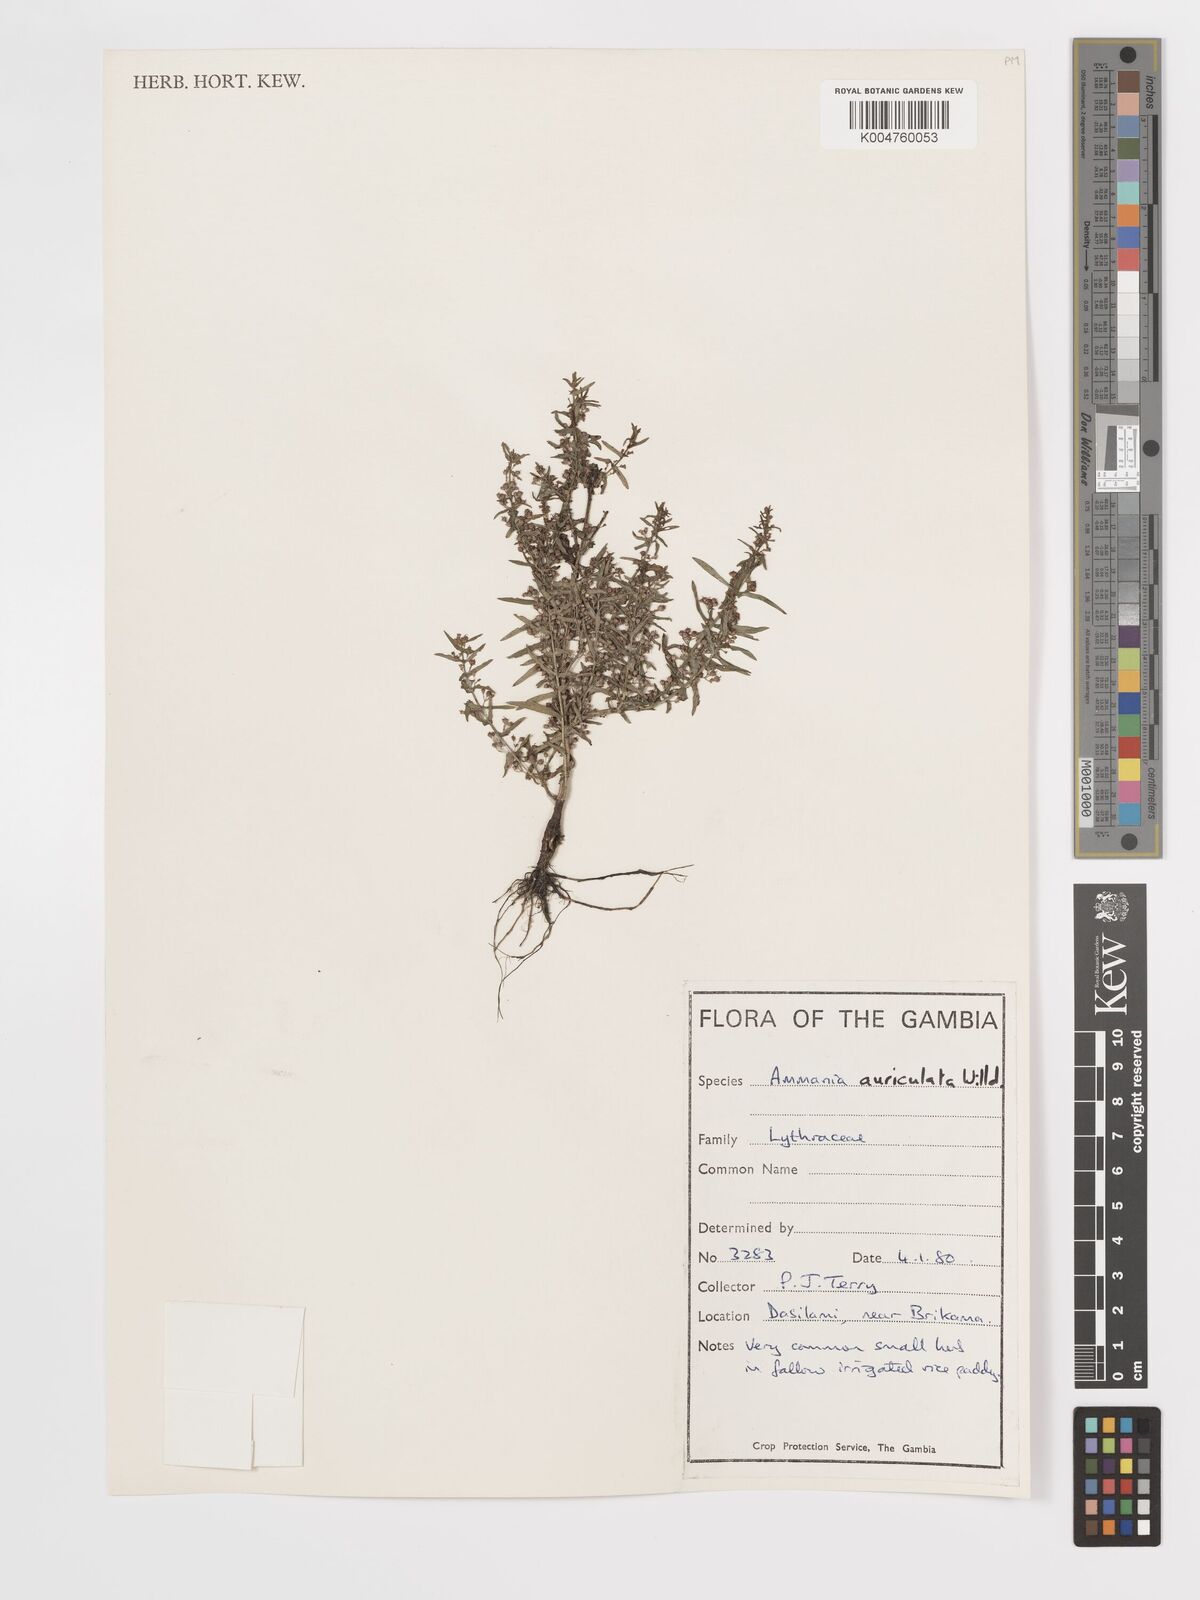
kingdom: Plantae
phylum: Tracheophyta
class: Magnoliopsida
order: Myrtales
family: Lythraceae
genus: Ammannia
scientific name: Ammannia auriculata
